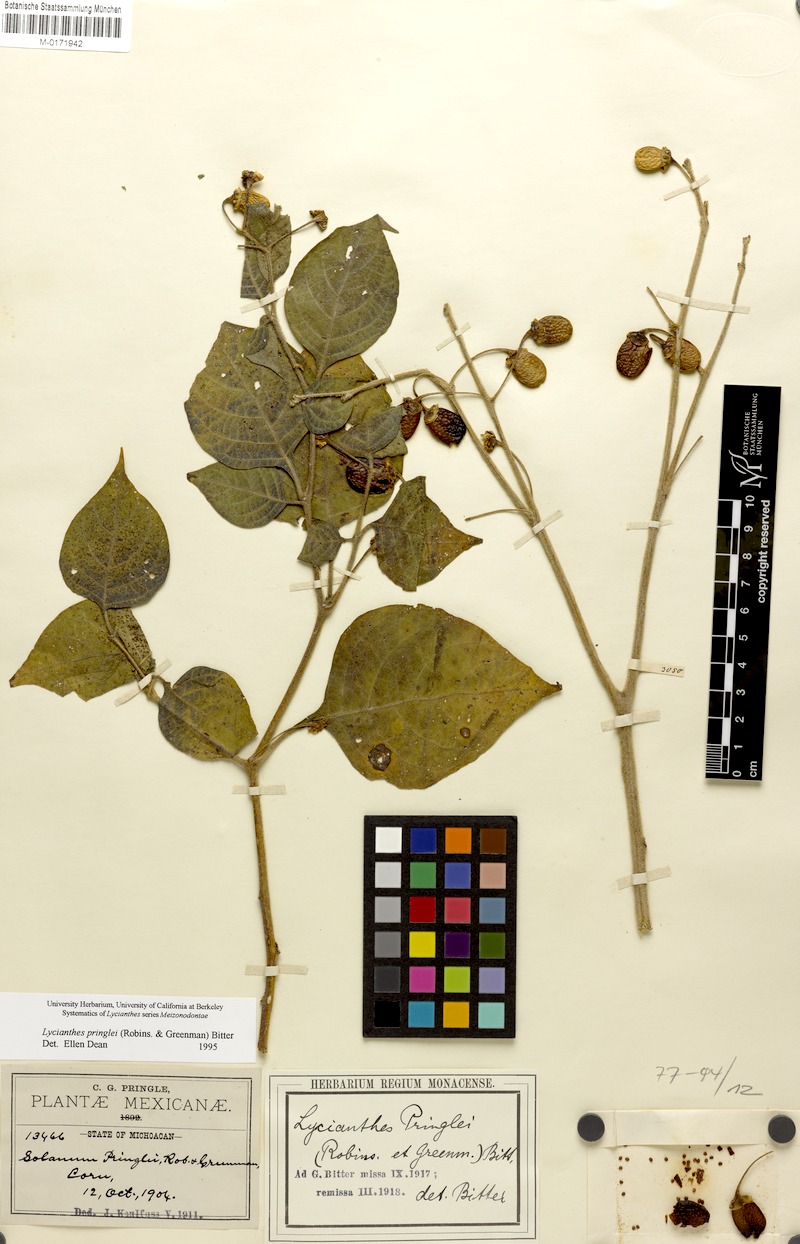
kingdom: Plantae
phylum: Tracheophyta
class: Magnoliopsida
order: Solanales
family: Solanaceae
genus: Lycianthes
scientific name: Lycianthes pringlei
